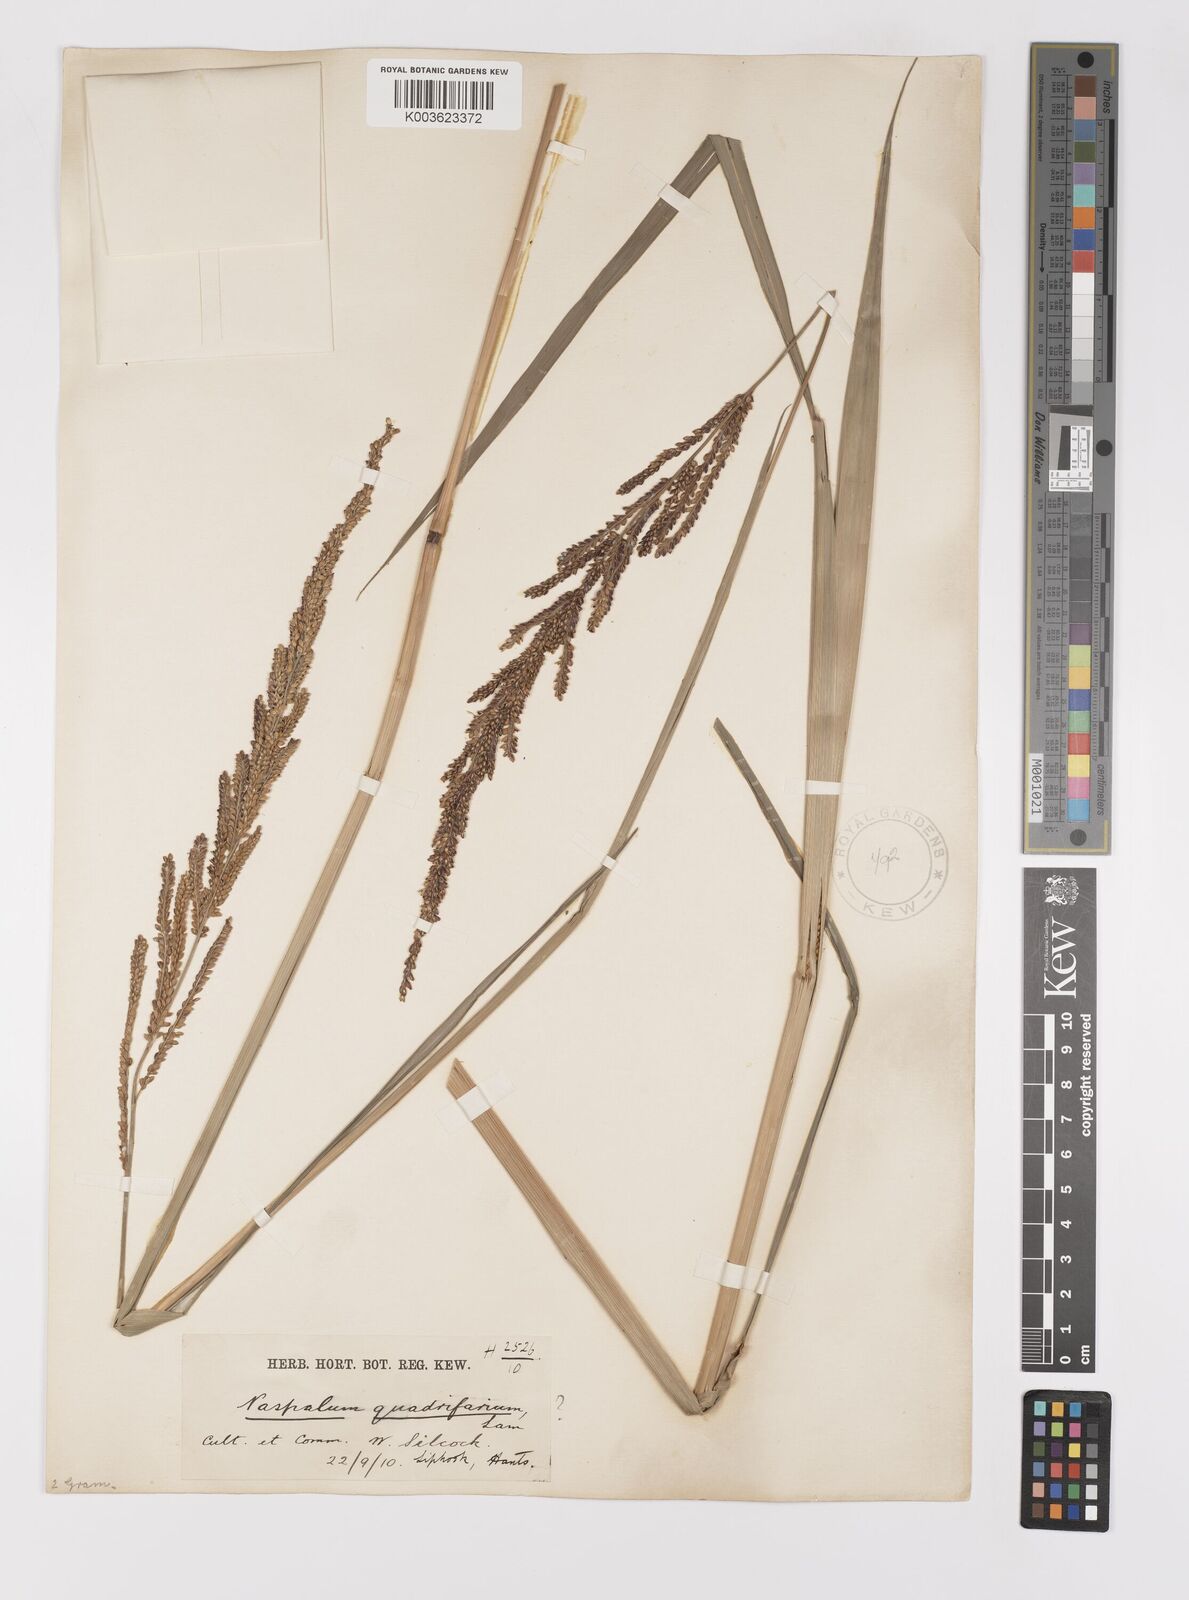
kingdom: Plantae
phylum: Tracheophyta
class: Liliopsida
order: Poales
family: Poaceae
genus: Paspalum
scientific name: Paspalum quadrifarium
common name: Tussock paspalum
